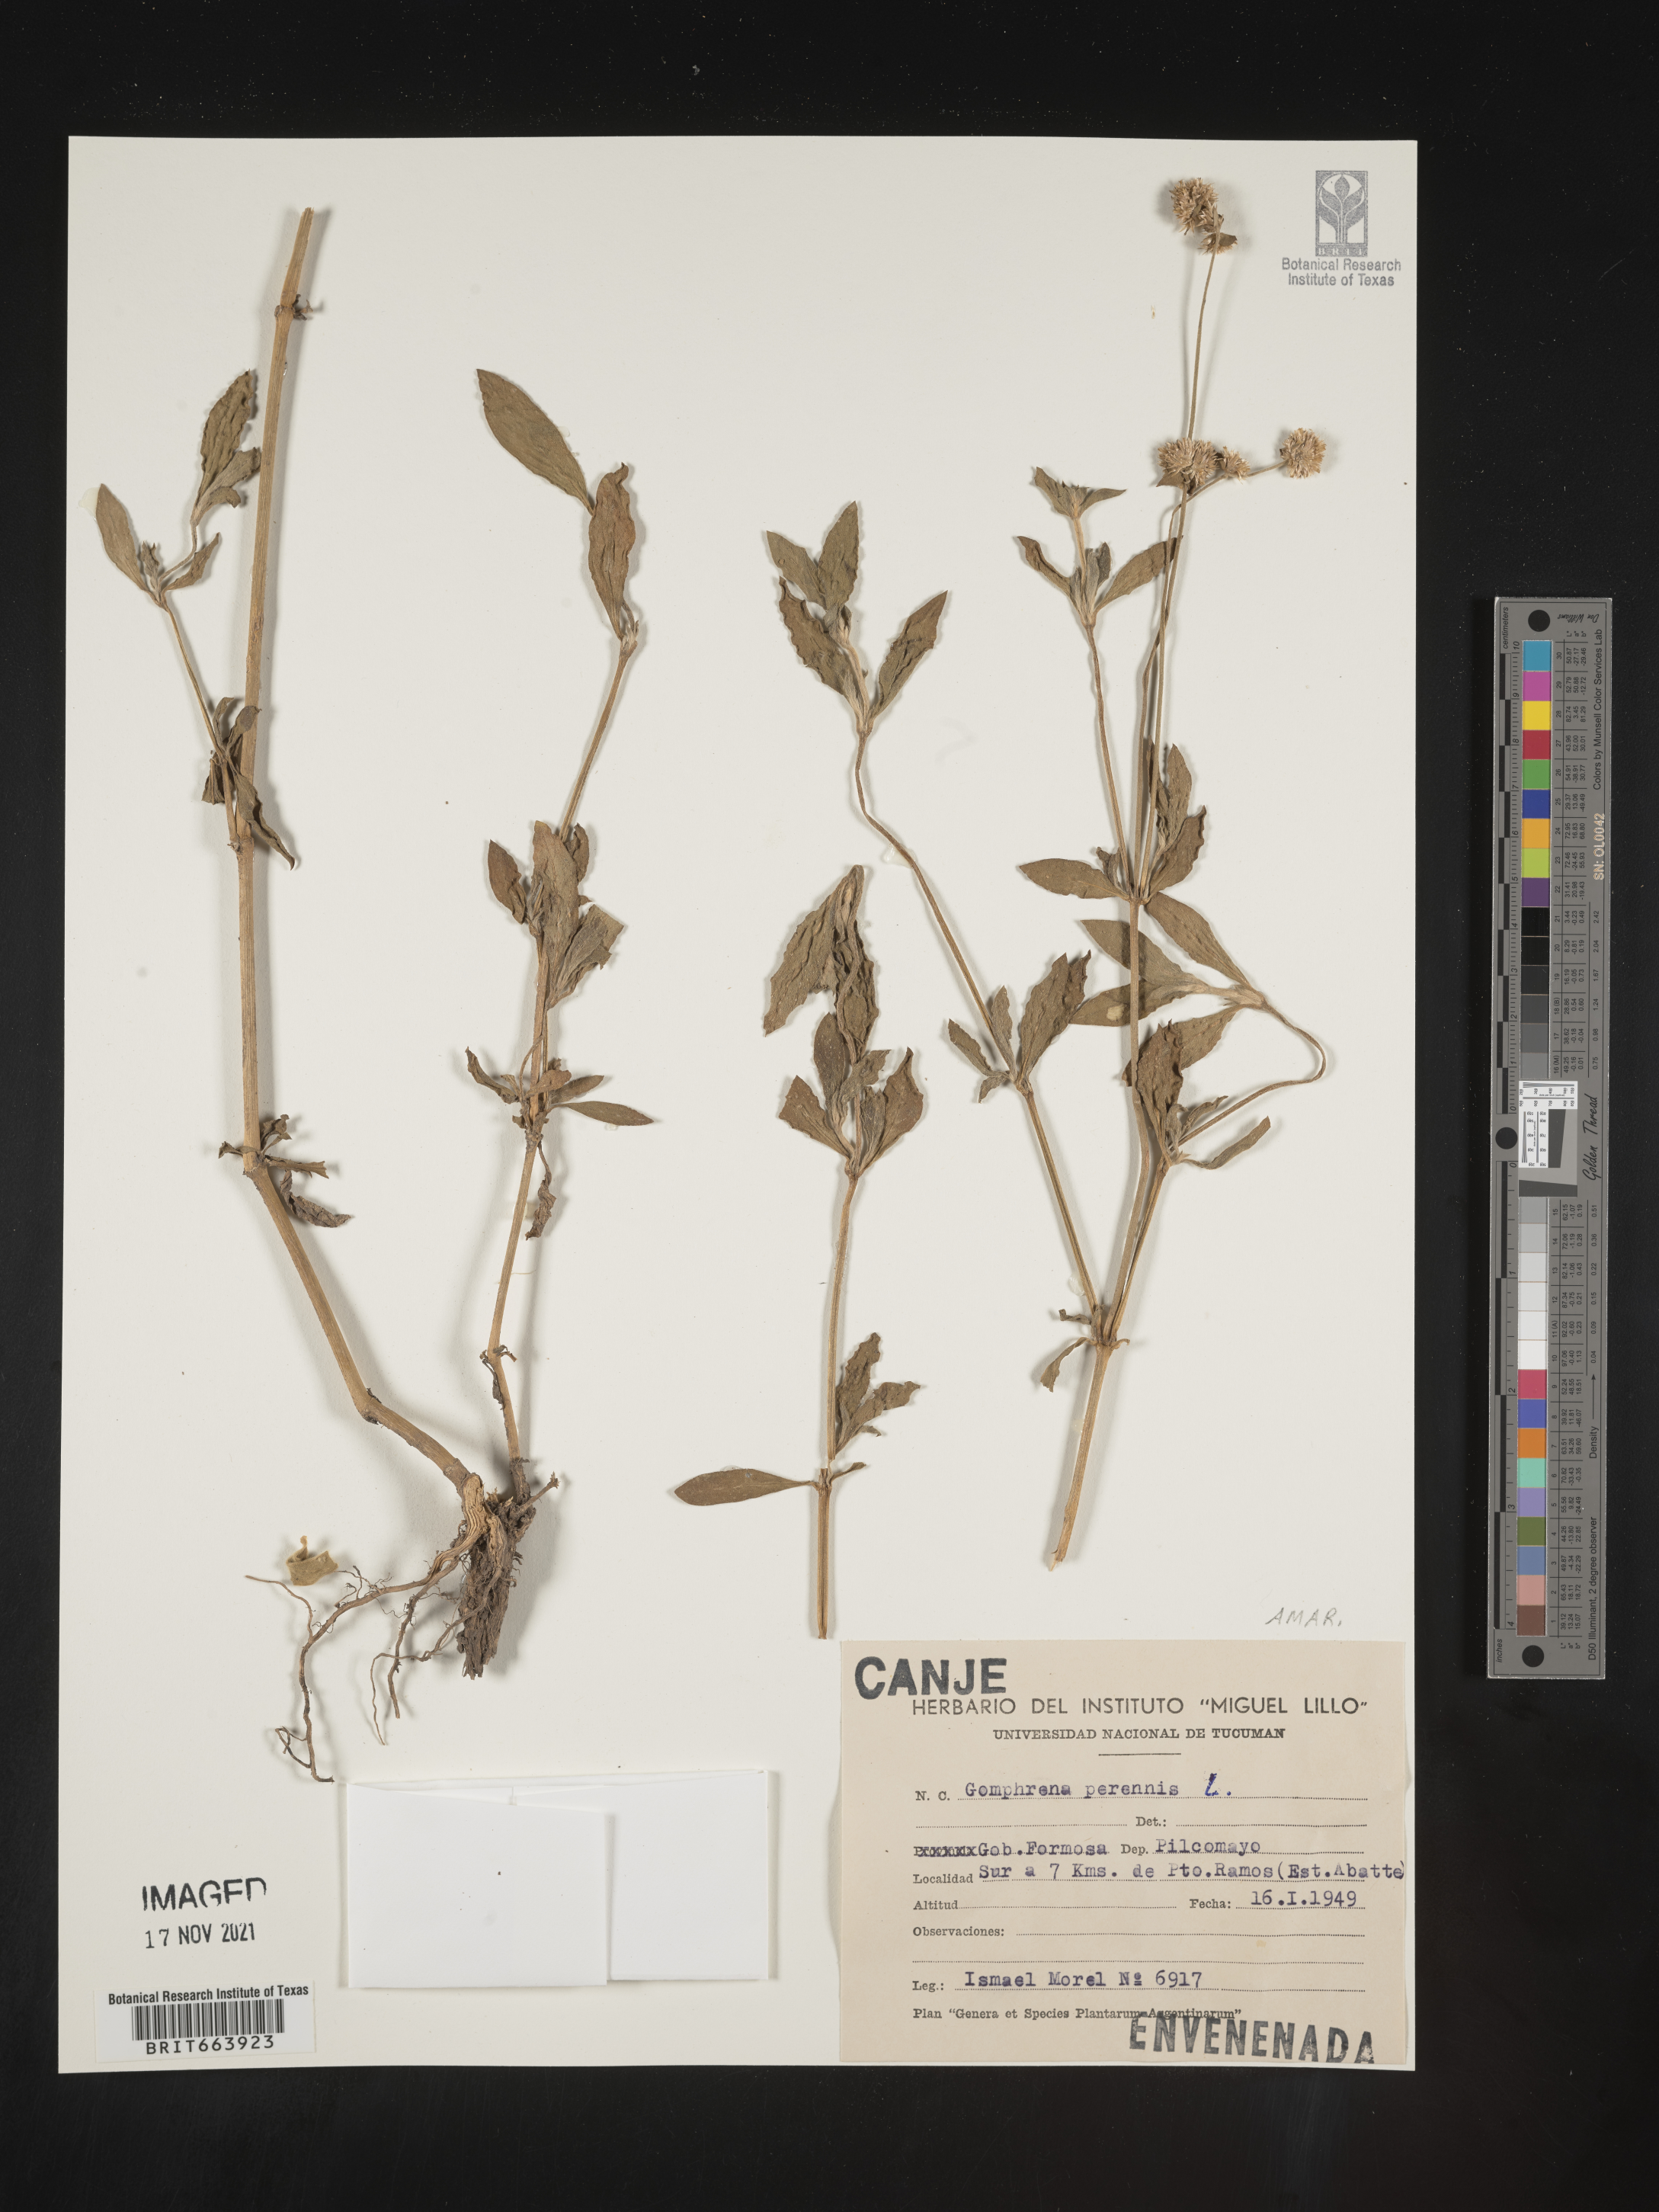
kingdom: Plantae
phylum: Tracheophyta
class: Magnoliopsida
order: Caryophyllales
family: Amaranthaceae
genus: Gomphrena
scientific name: Gomphrena
